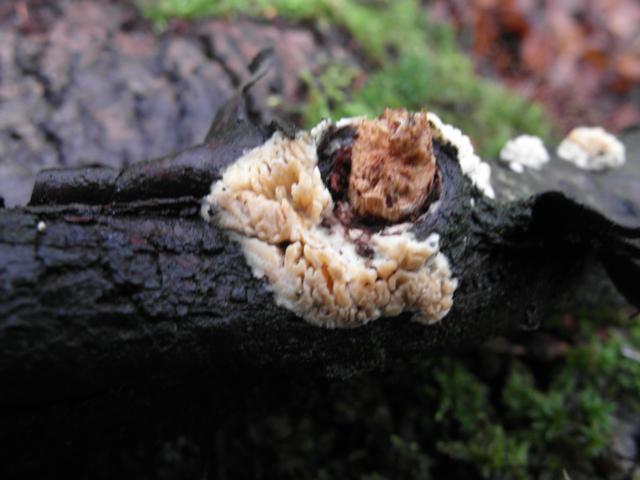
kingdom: Fungi
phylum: Basidiomycota
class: Agaricomycetes
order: Hymenochaetales
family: Schizoporaceae
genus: Xylodon
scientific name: Xylodon radula
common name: grovtandet kalkskind
